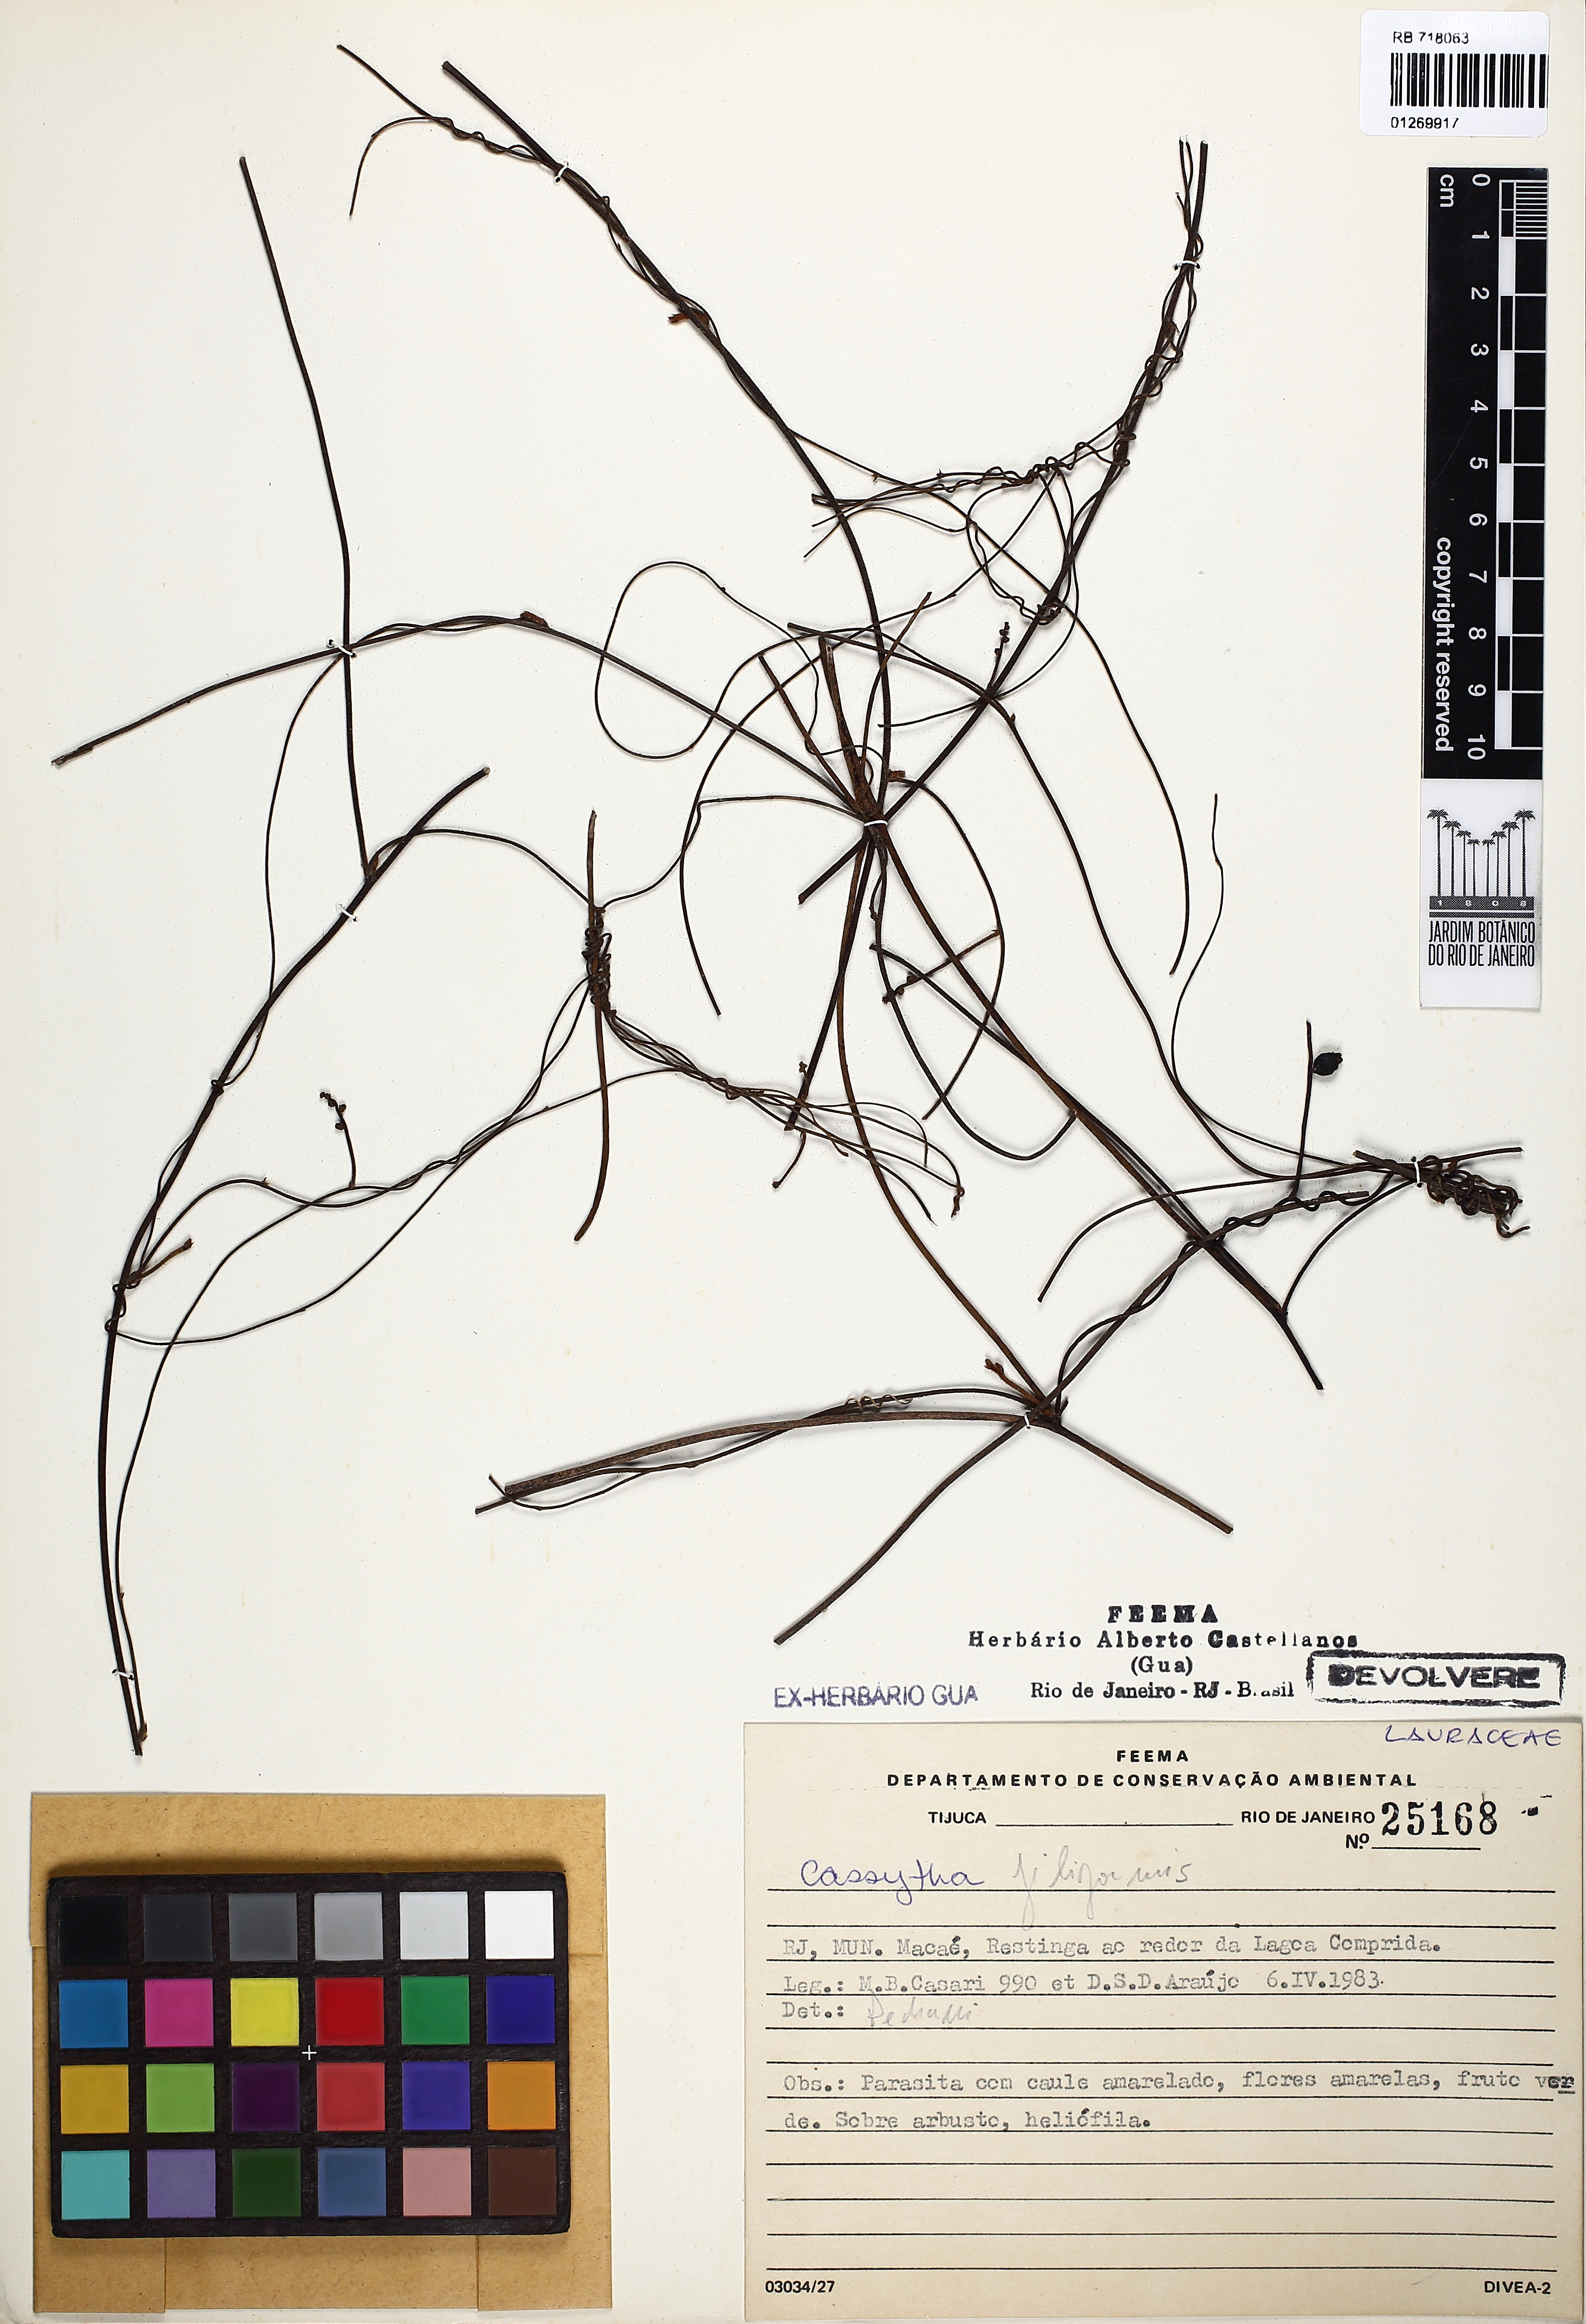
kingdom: Plantae
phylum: Tracheophyta
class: Magnoliopsida
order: Laurales
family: Lauraceae
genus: Cassytha
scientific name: Cassytha filiformis
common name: Dodder-laurel
